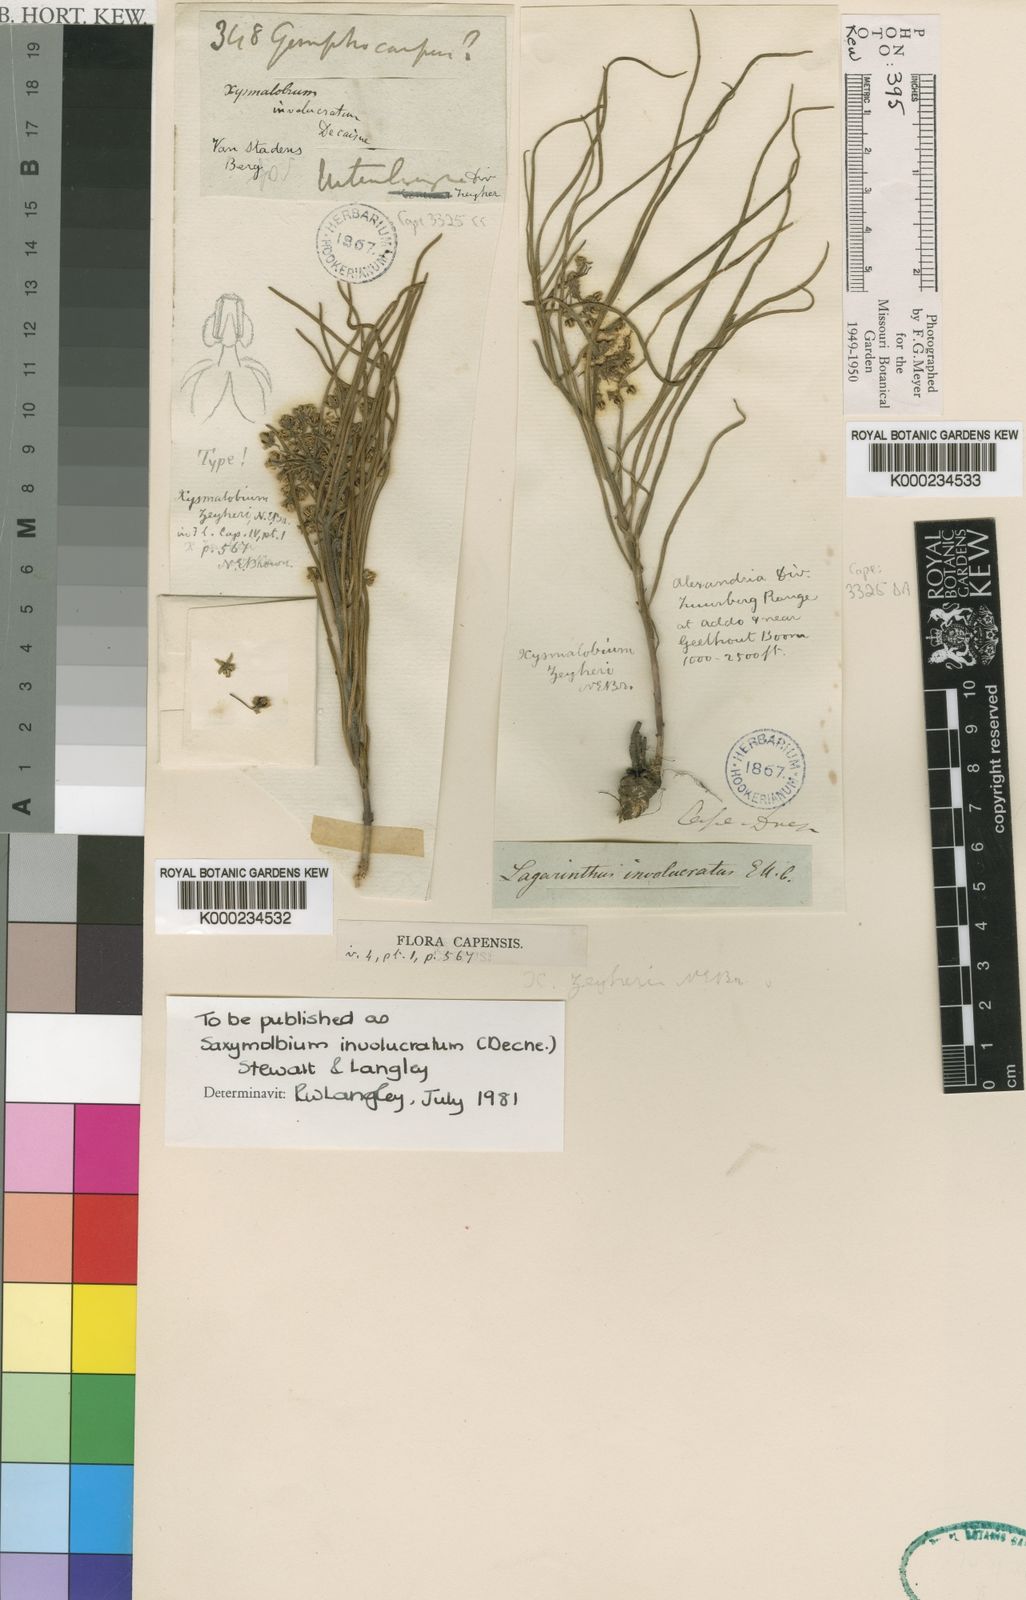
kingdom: Plantae
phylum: Tracheophyta
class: Magnoliopsida
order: Gentianales
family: Apocynaceae
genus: Xysmalobium
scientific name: Xysmalobium zeyheri
